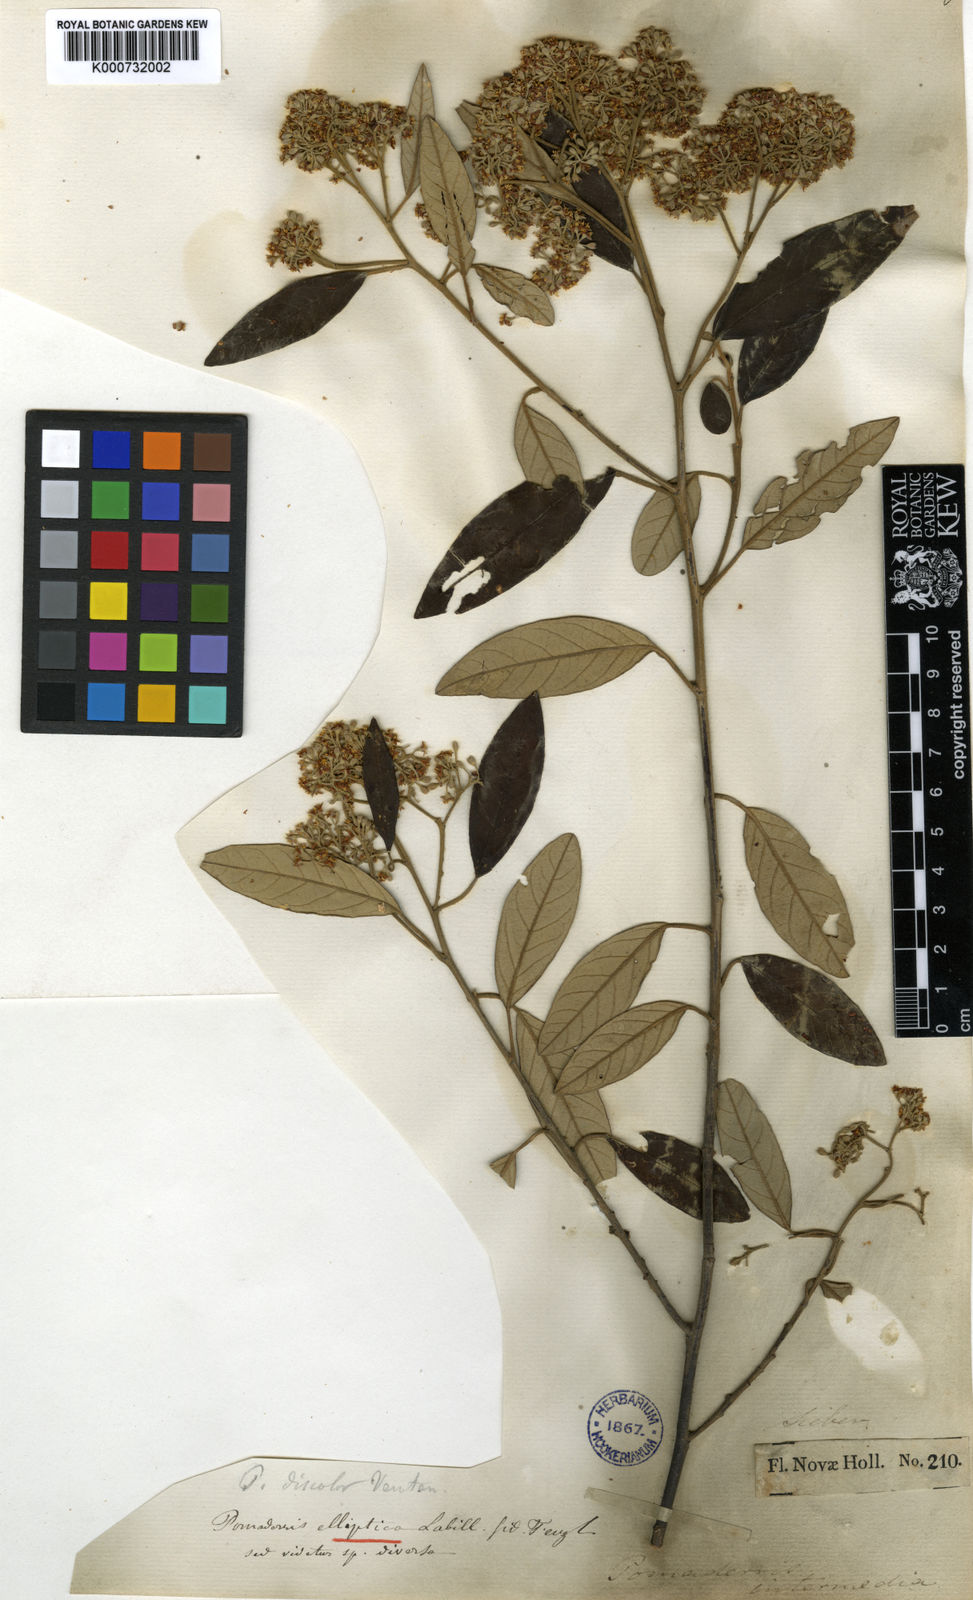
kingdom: Plantae
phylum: Tracheophyta
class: Magnoliopsida
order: Rosales
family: Rhamnaceae
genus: Pomaderris
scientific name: Pomaderris
